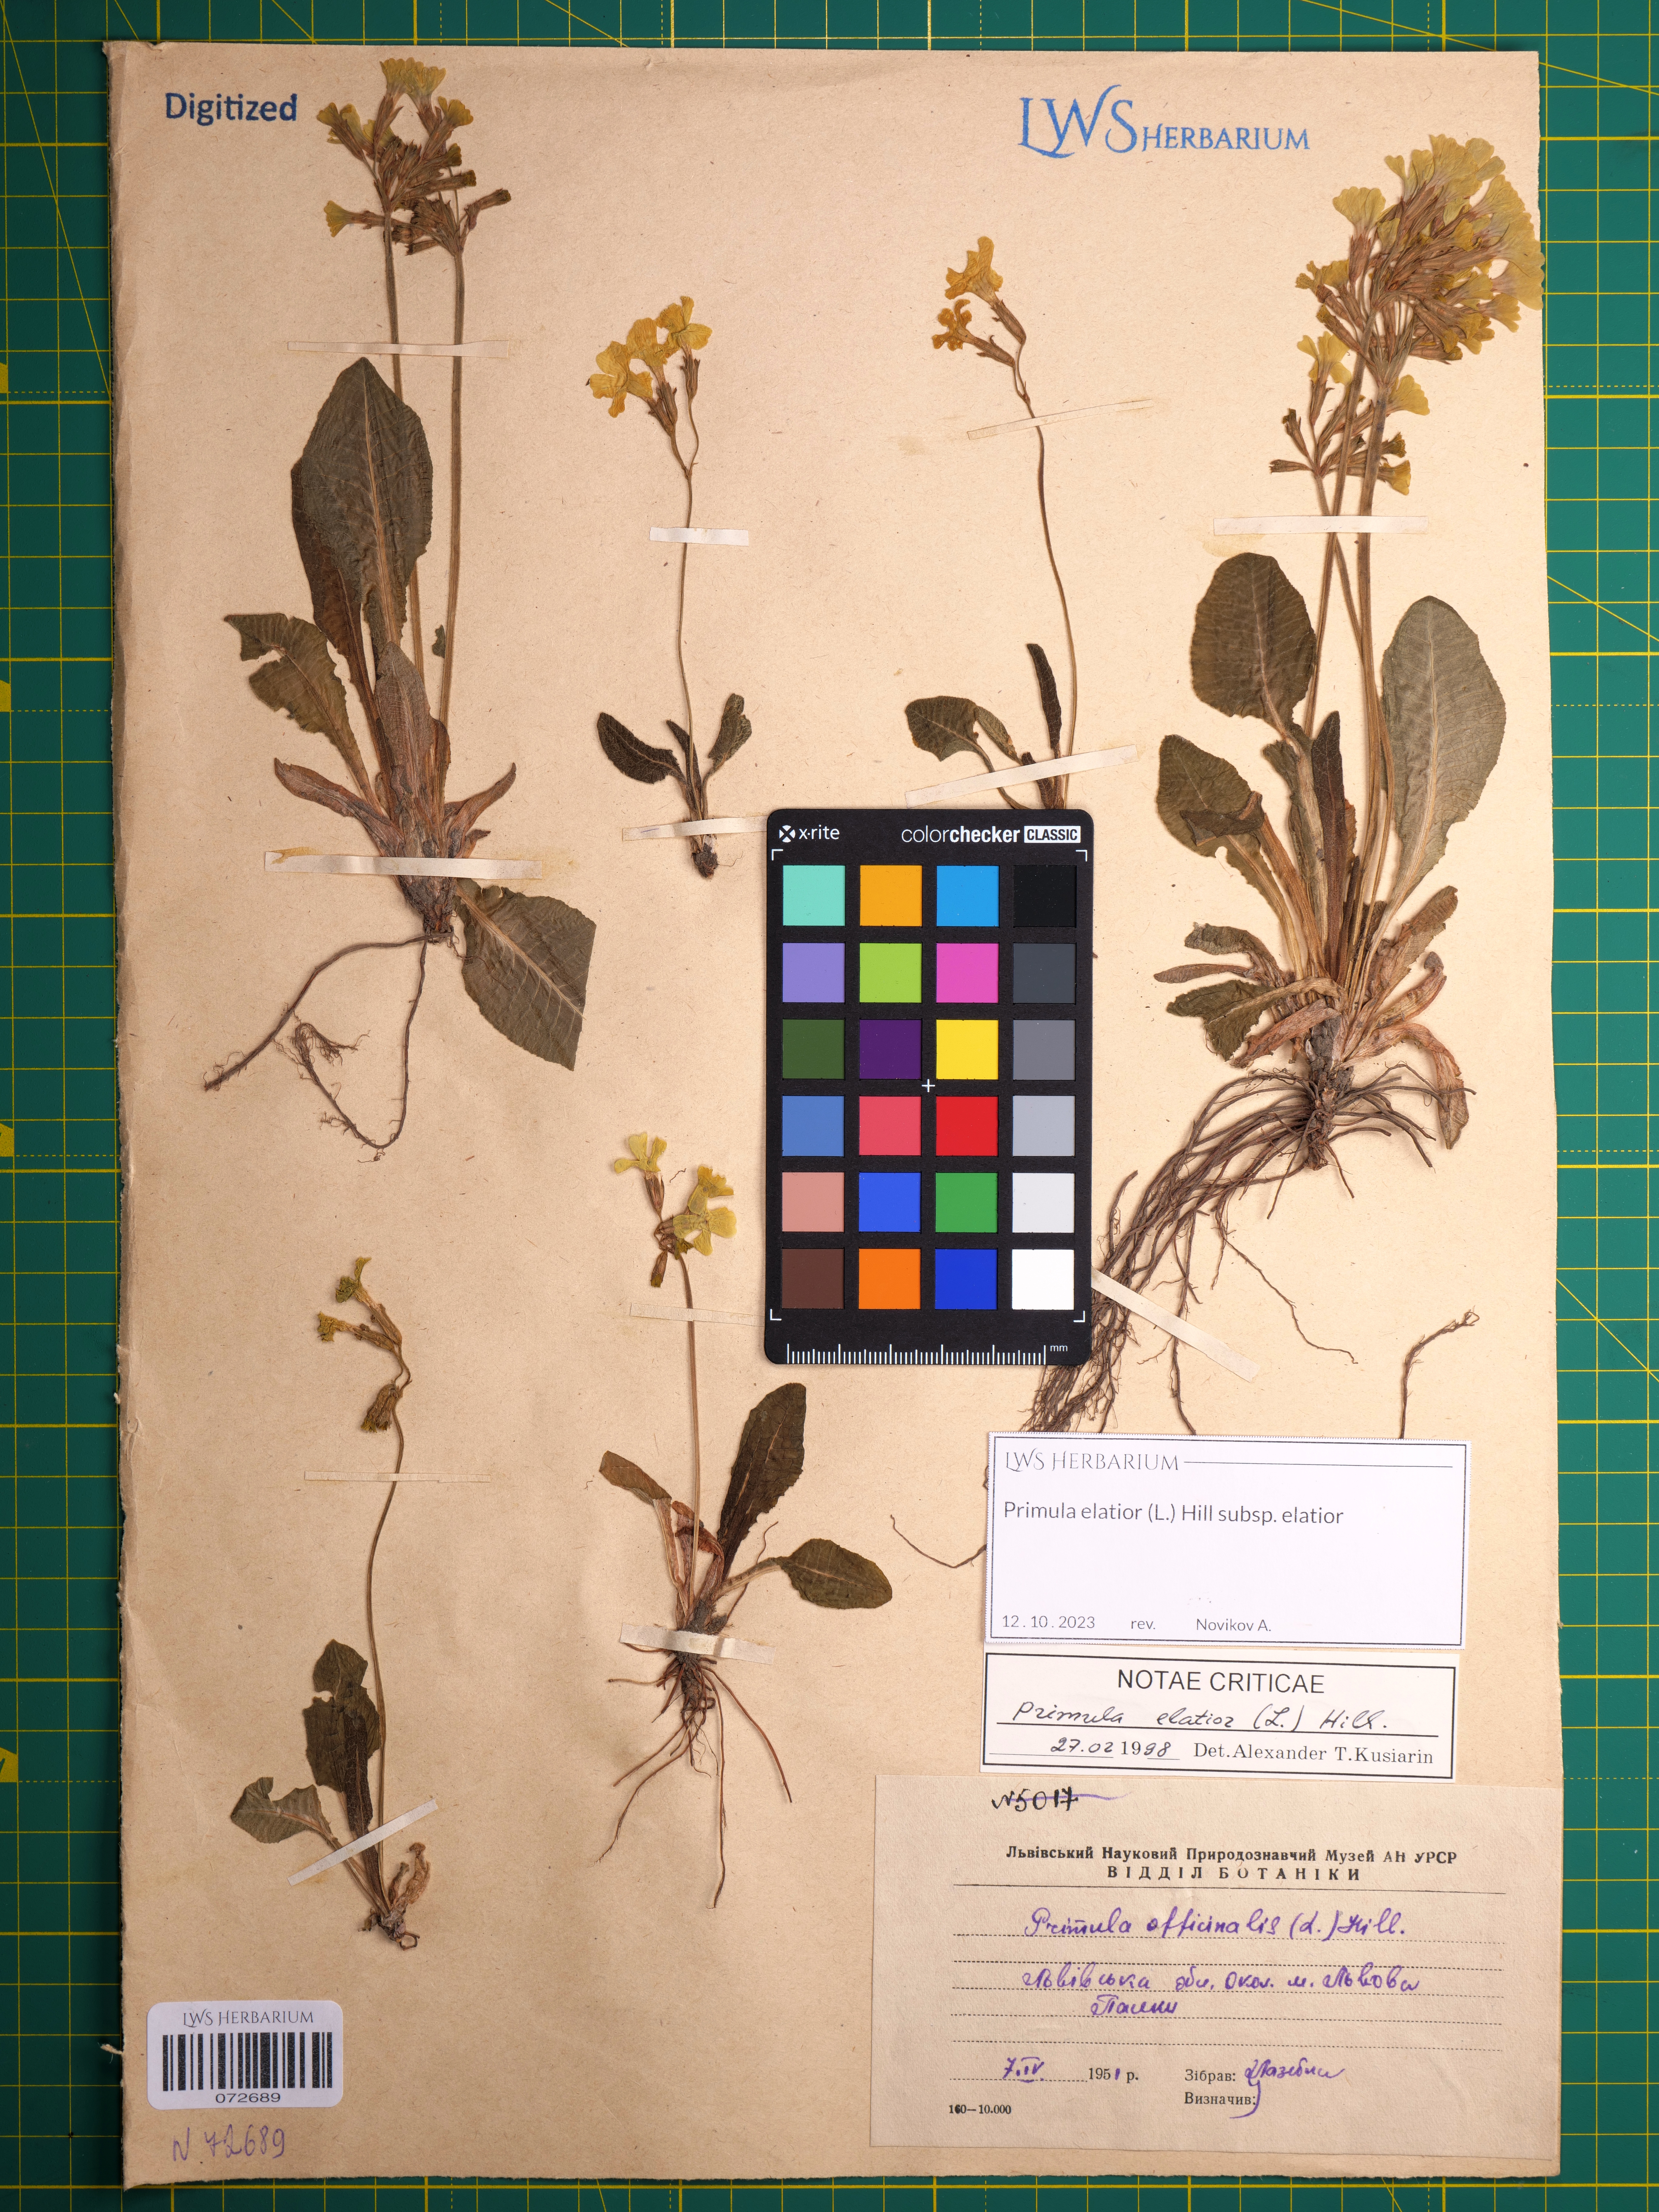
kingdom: Plantae
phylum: Tracheophyta
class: Magnoliopsida
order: Ericales
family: Primulaceae
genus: Primula
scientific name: Primula elatior
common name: Oxlip
